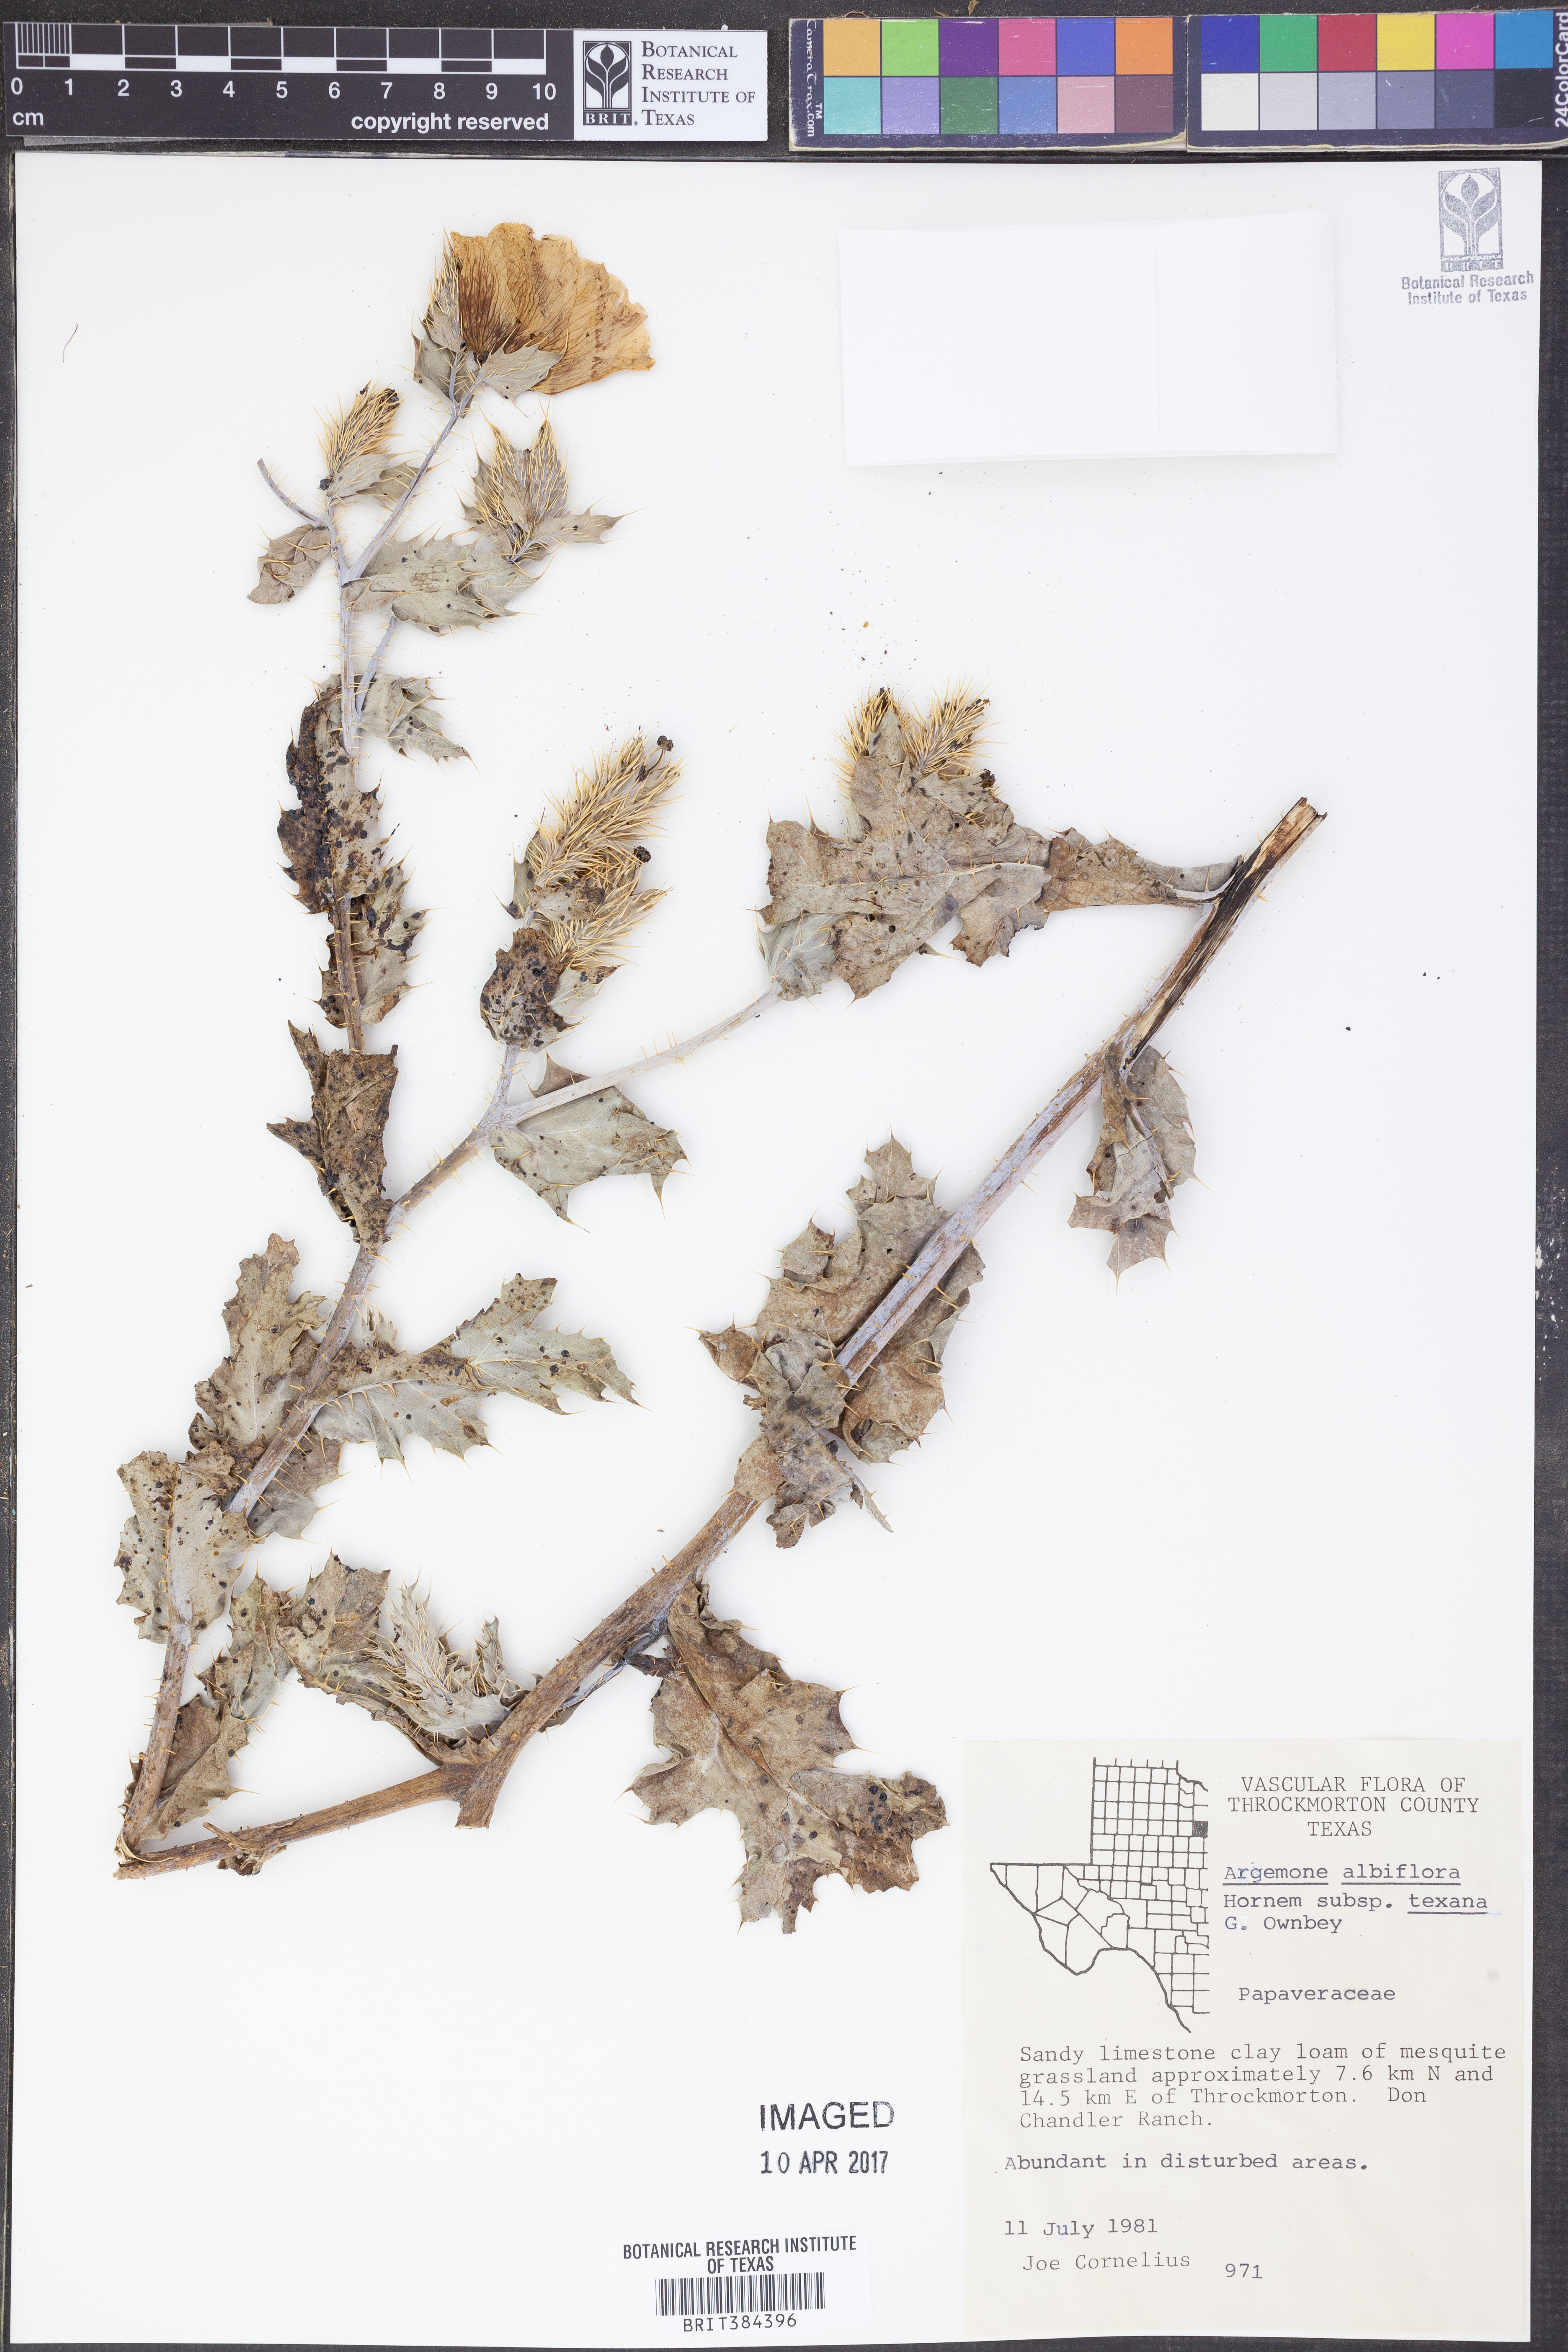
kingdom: Plantae
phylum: Tracheophyta
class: Magnoliopsida
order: Ranunculales
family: Papaveraceae
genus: Argemone
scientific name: Argemone albiflora
